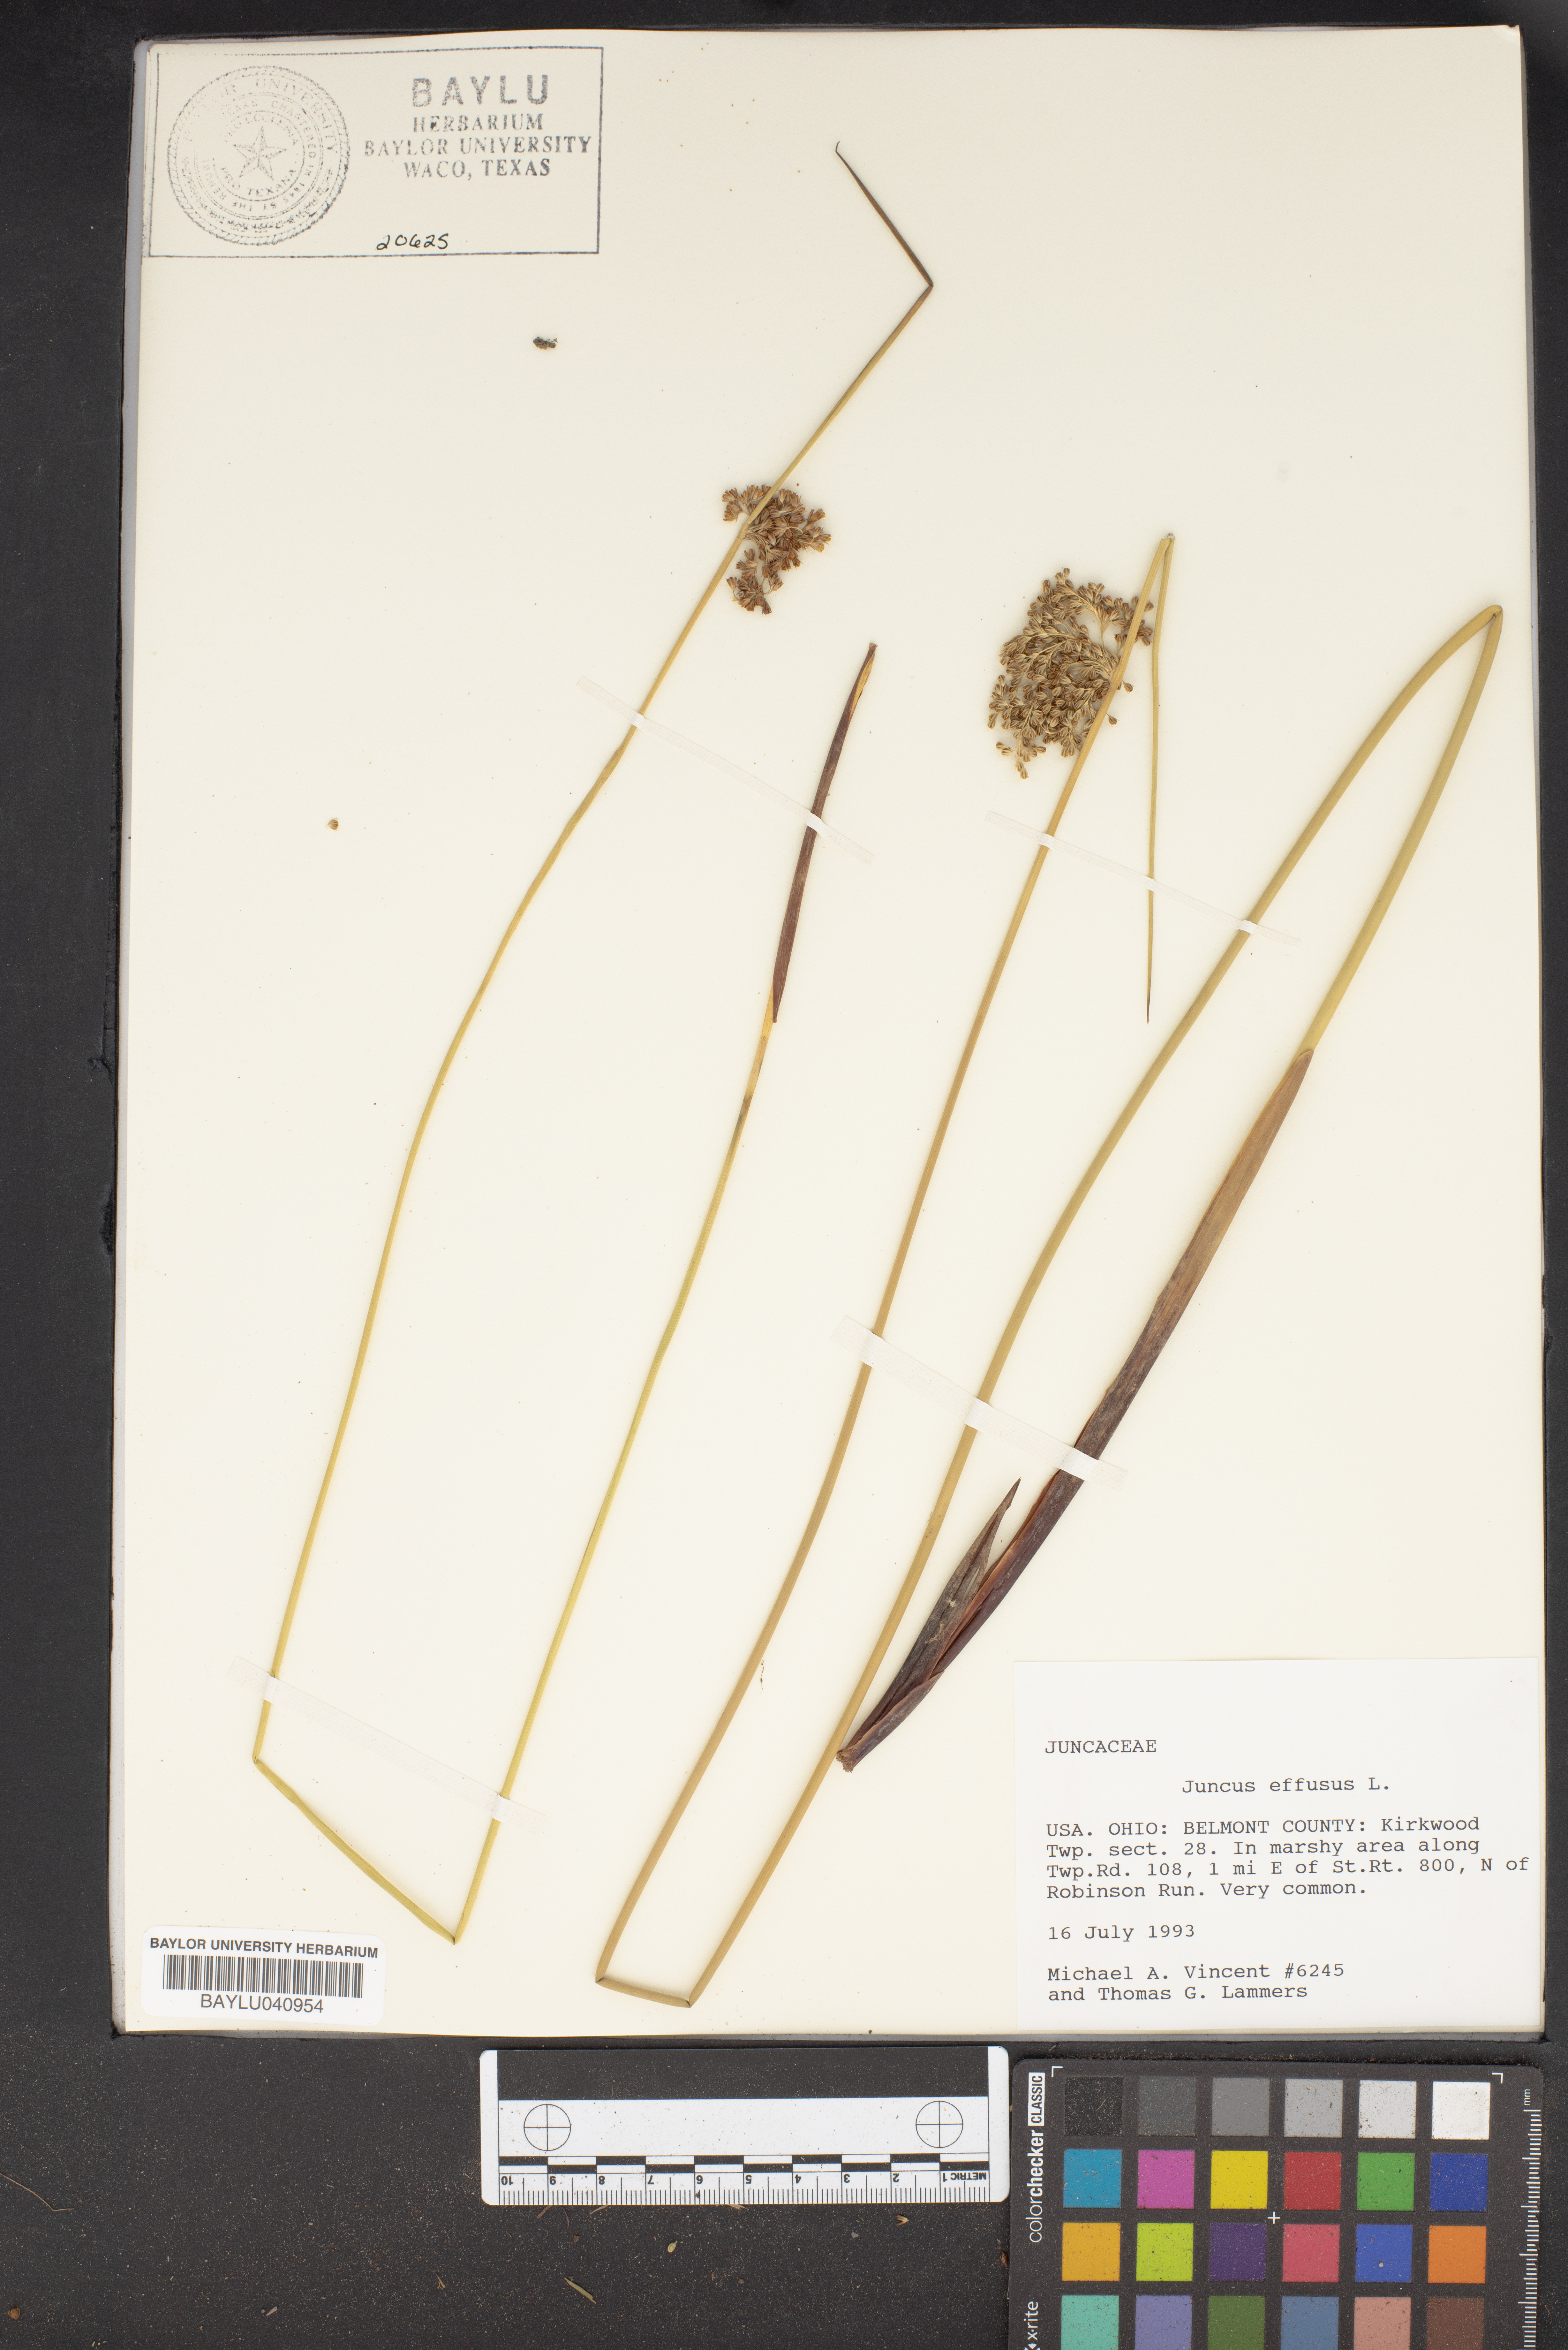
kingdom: Plantae
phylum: Tracheophyta
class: Liliopsida
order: Poales
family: Juncaceae
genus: Juncus
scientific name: Juncus effusus
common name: Soft rush
